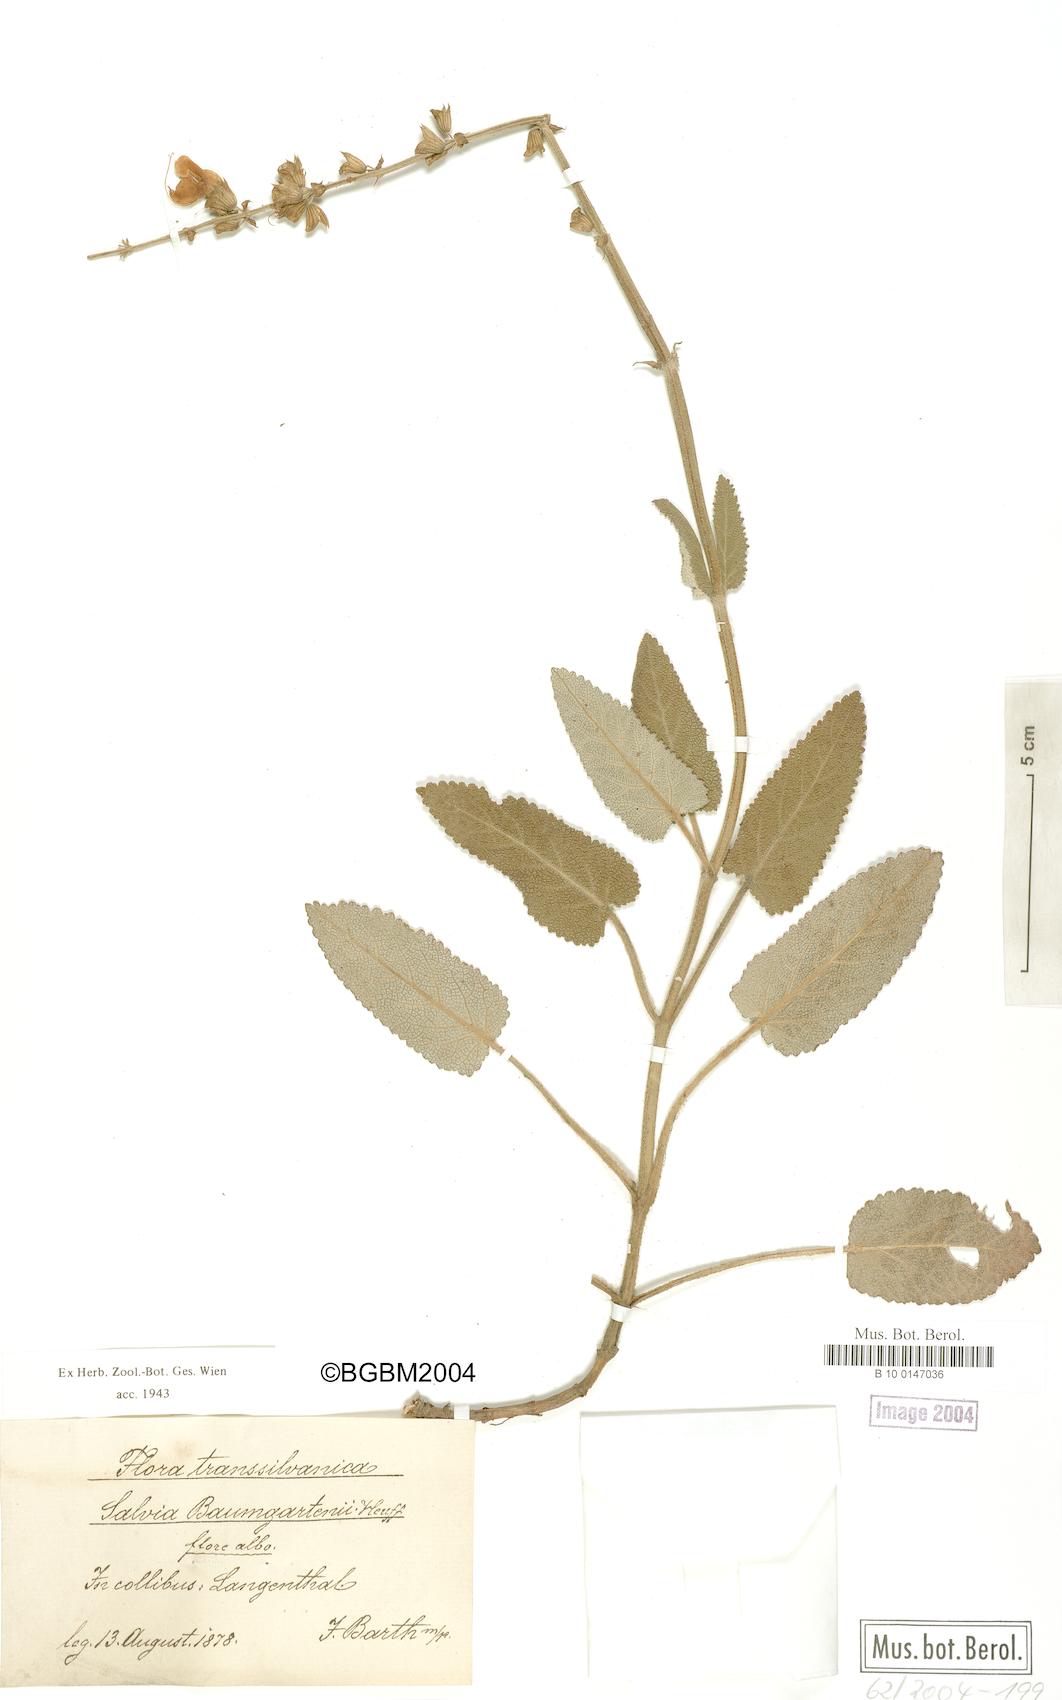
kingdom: Plantae
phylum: Tracheophyta
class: Magnoliopsida
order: Lamiales
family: Lamiaceae
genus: Salvia
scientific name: Salvia transsylvanica
